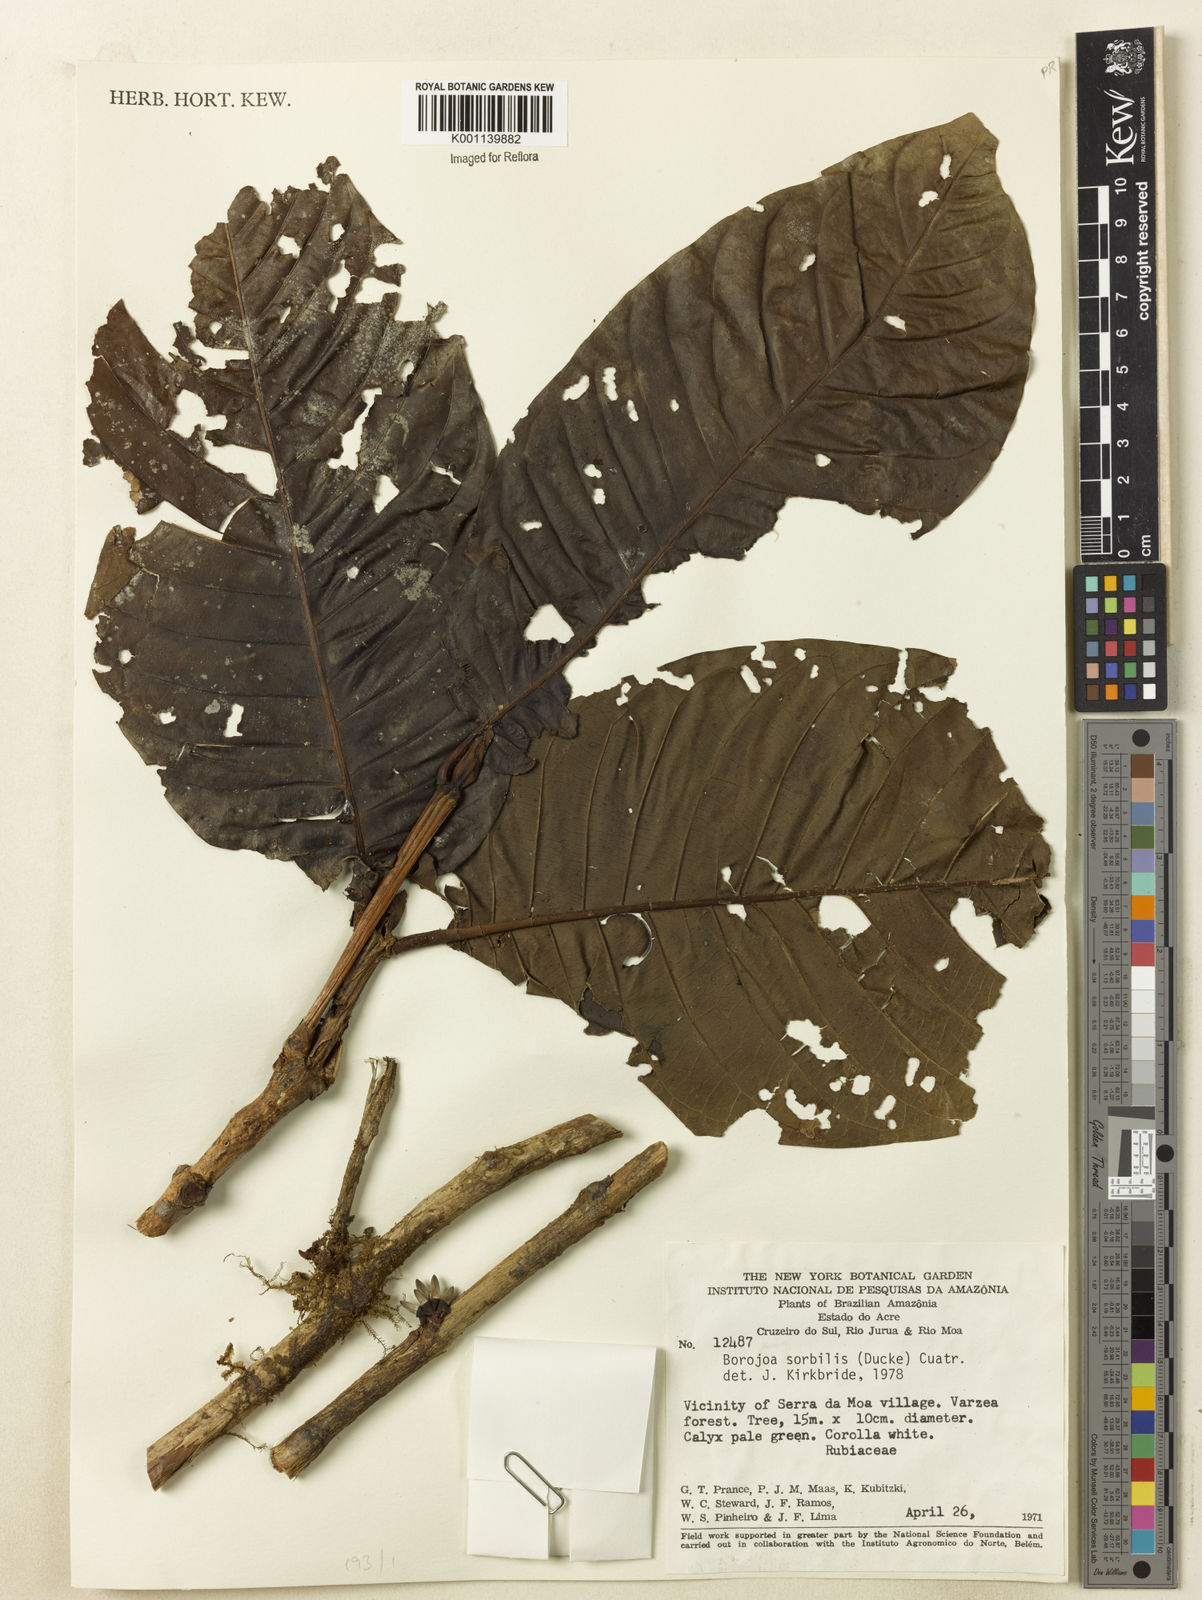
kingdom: Plantae
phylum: Tracheophyta
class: Magnoliopsida
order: Gentianales
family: Rubiaceae
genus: Alibertia
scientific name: Alibertia sorbilis
